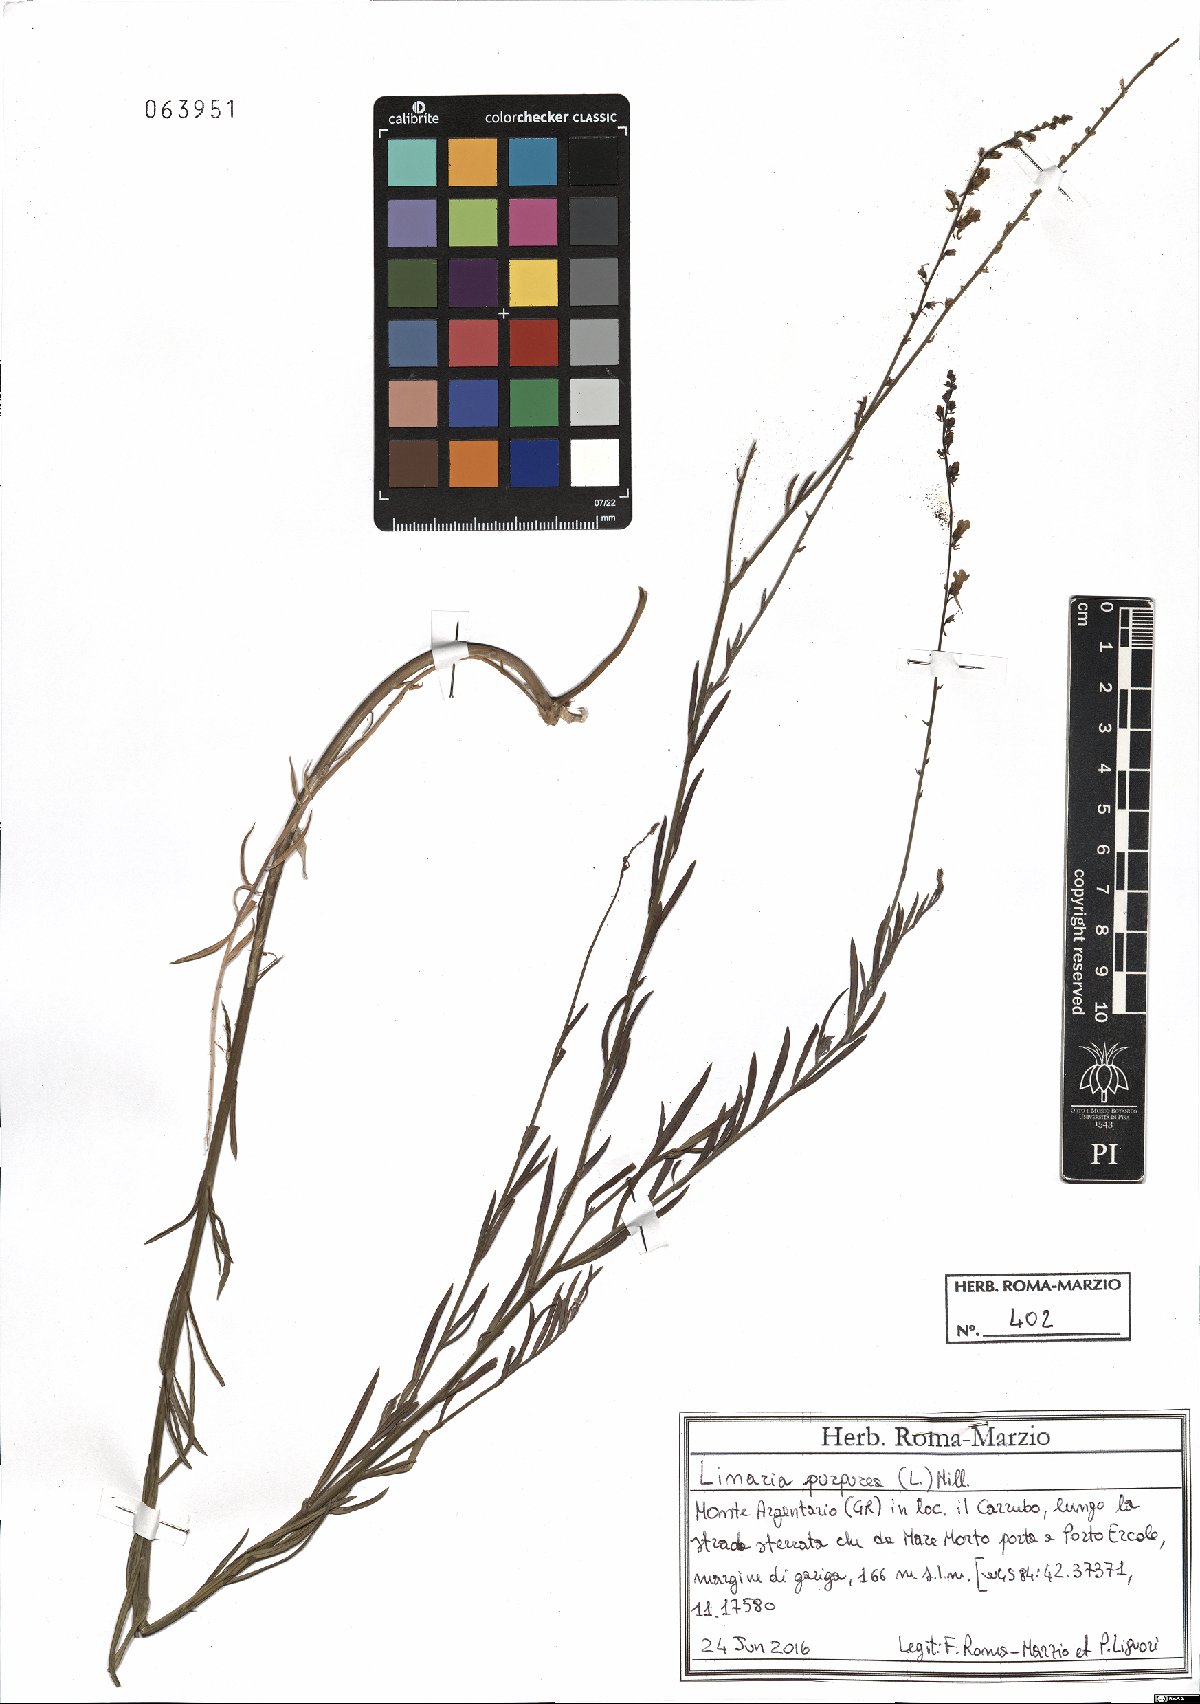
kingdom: Plantae
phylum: Tracheophyta
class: Magnoliopsida
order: Lamiales
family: Plantaginaceae
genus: Linaria
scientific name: Linaria purpurea
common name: Purple toadflax
